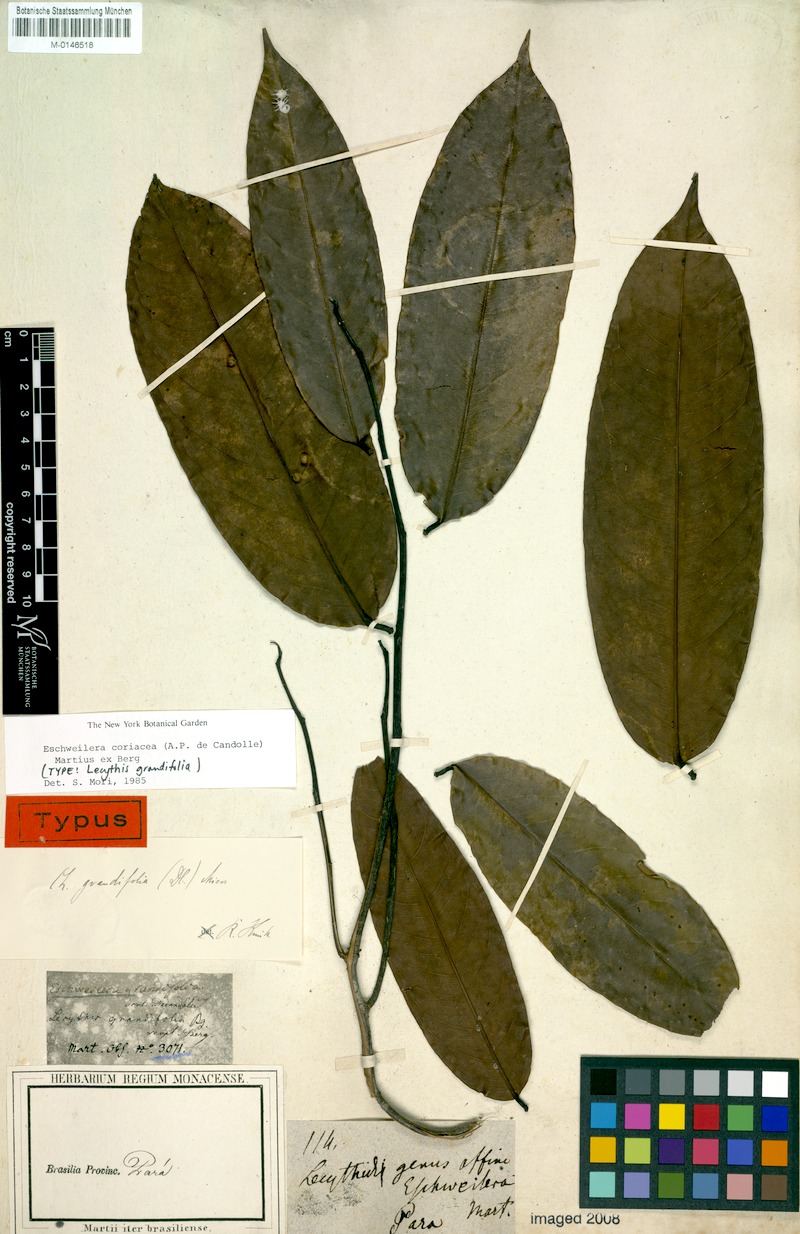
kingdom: Plantae
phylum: Tracheophyta
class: Magnoliopsida
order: Ericales
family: Lecythidaceae
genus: Eschweilera
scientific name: Eschweilera coriacea
